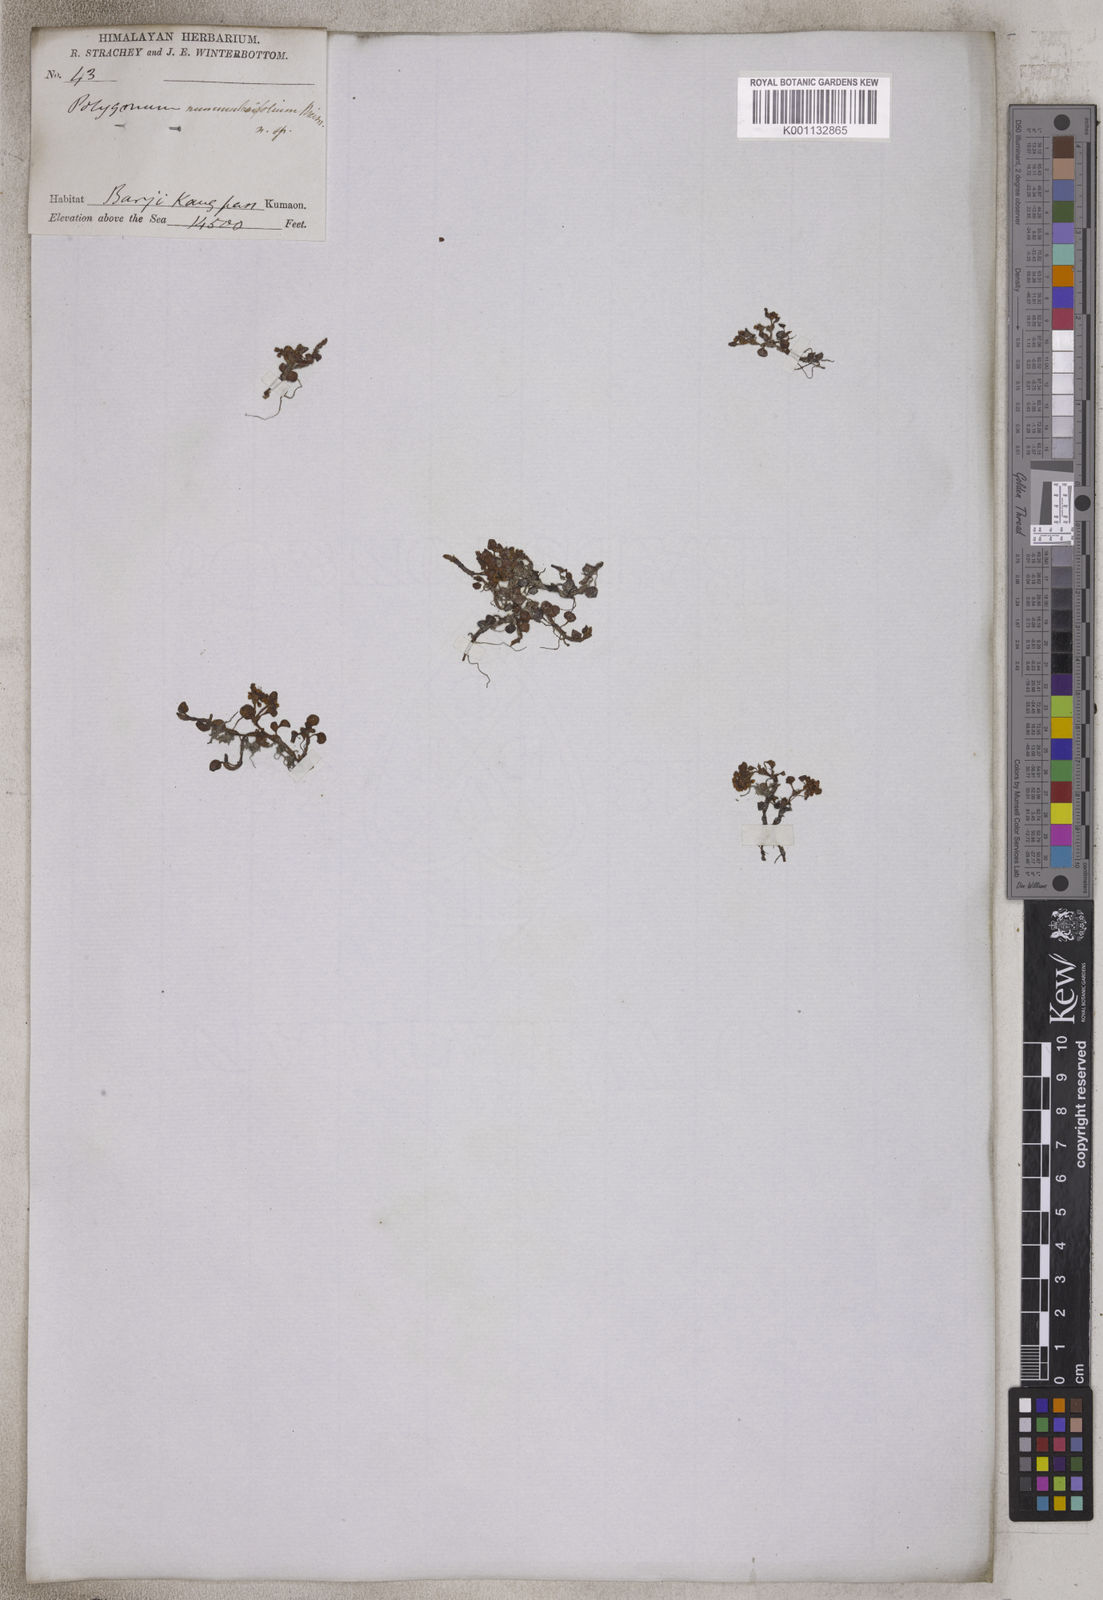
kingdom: Plantae
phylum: Tracheophyta
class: Magnoliopsida
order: Caryophyllales
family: Polygonaceae
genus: Koenigia
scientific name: Koenigia nummularifolia
